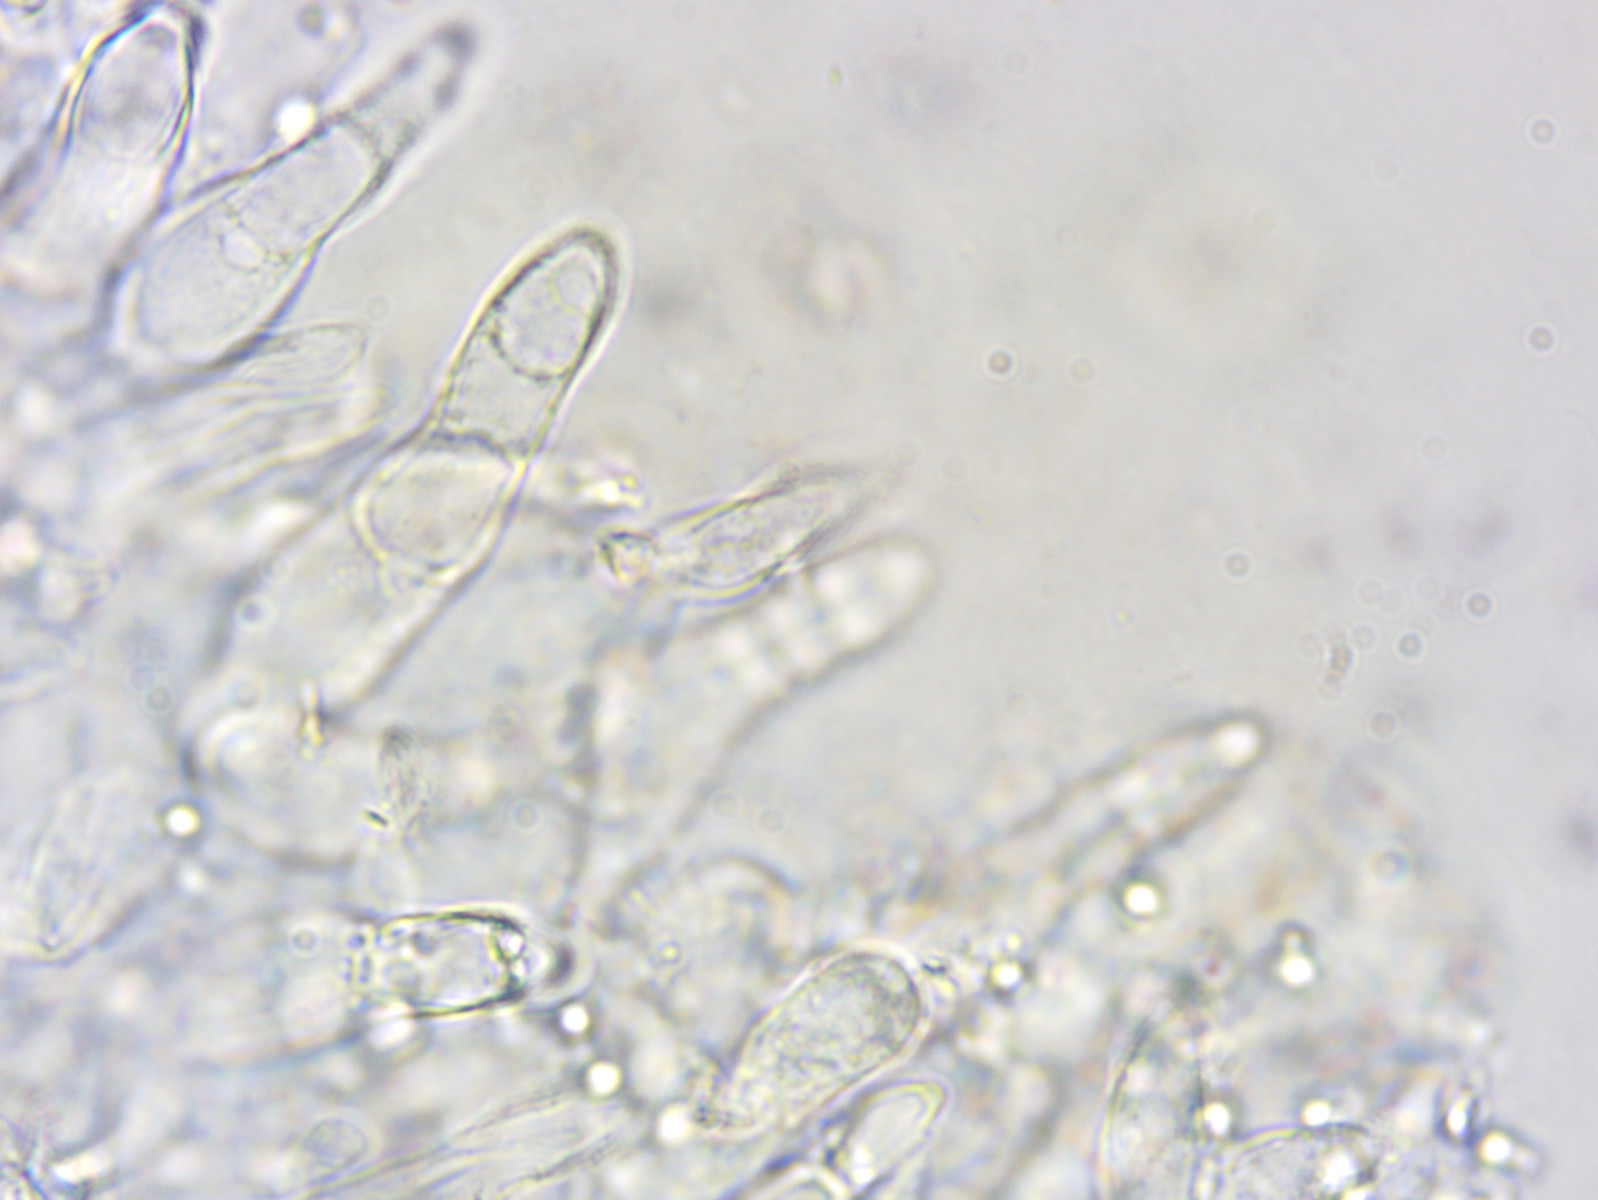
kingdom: Fungi
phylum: Basidiomycota
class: Agaricomycetes
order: Agaricales
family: Mycenaceae
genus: Mycena
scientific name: Mycena leptocephala
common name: klor-huesvamp
